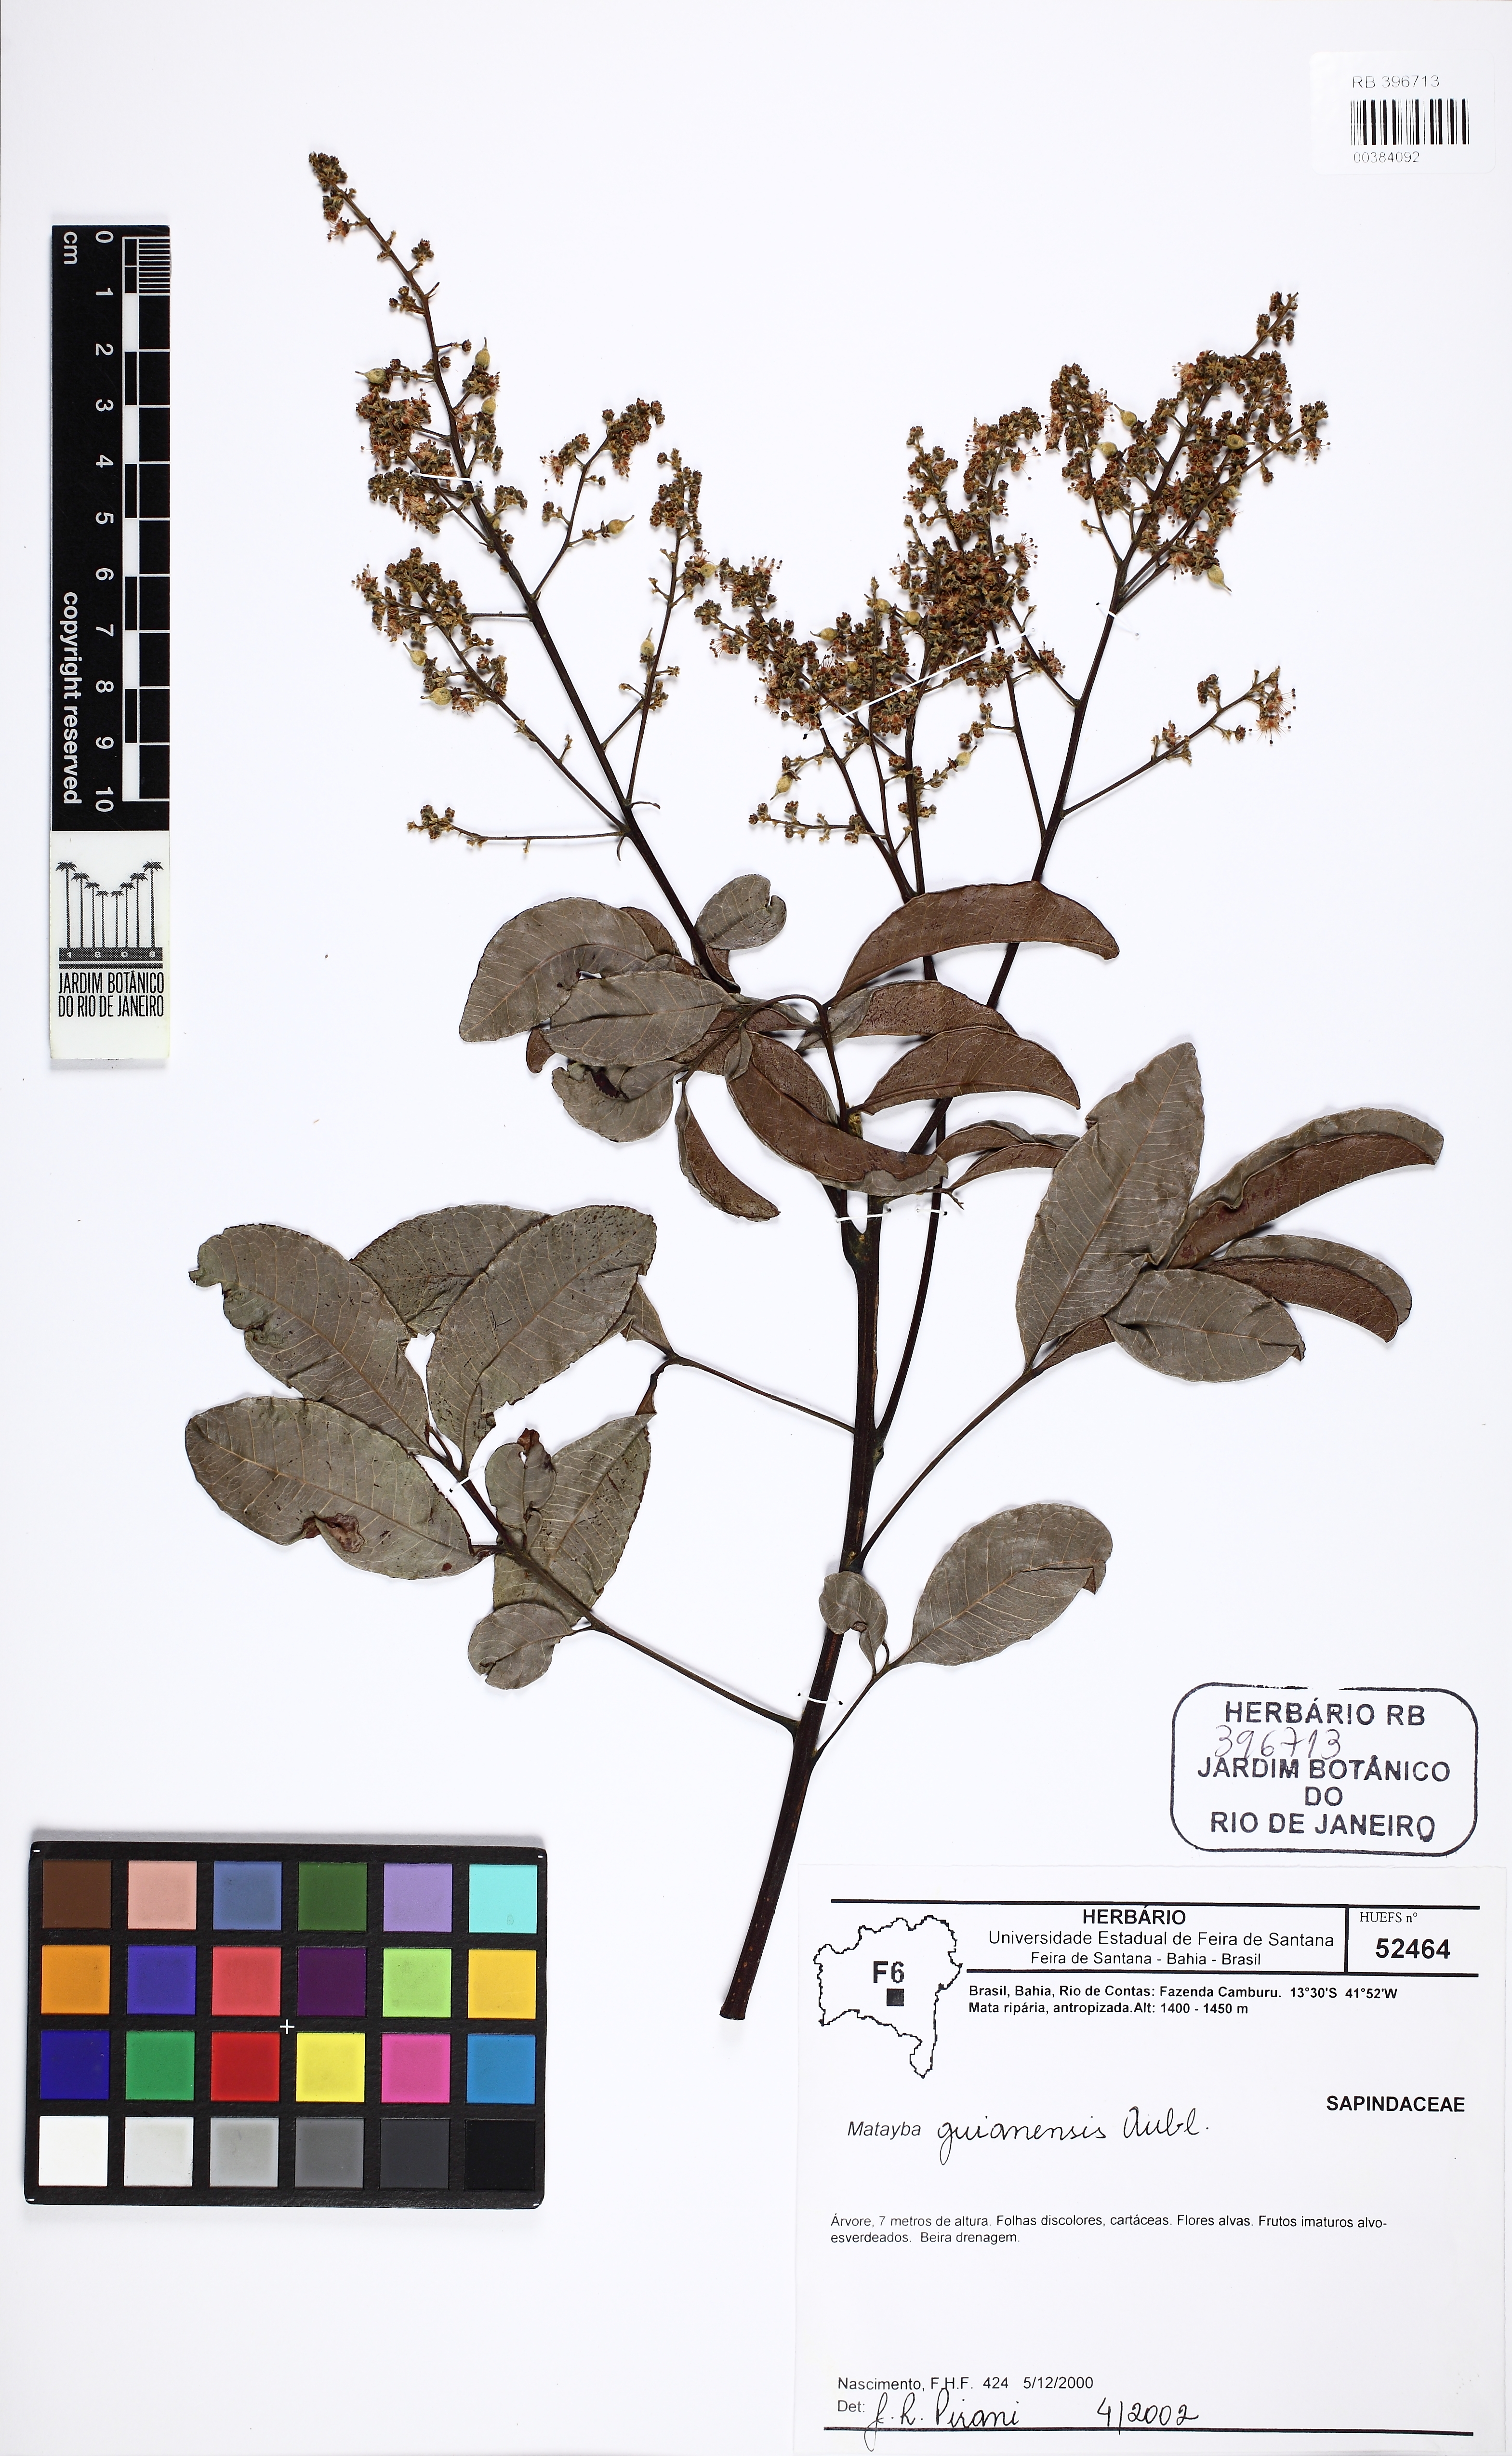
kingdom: Plantae
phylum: Tracheophyta
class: Magnoliopsida
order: Sapindales
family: Sapindaceae
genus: Matayba
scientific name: Matayba guianensis
